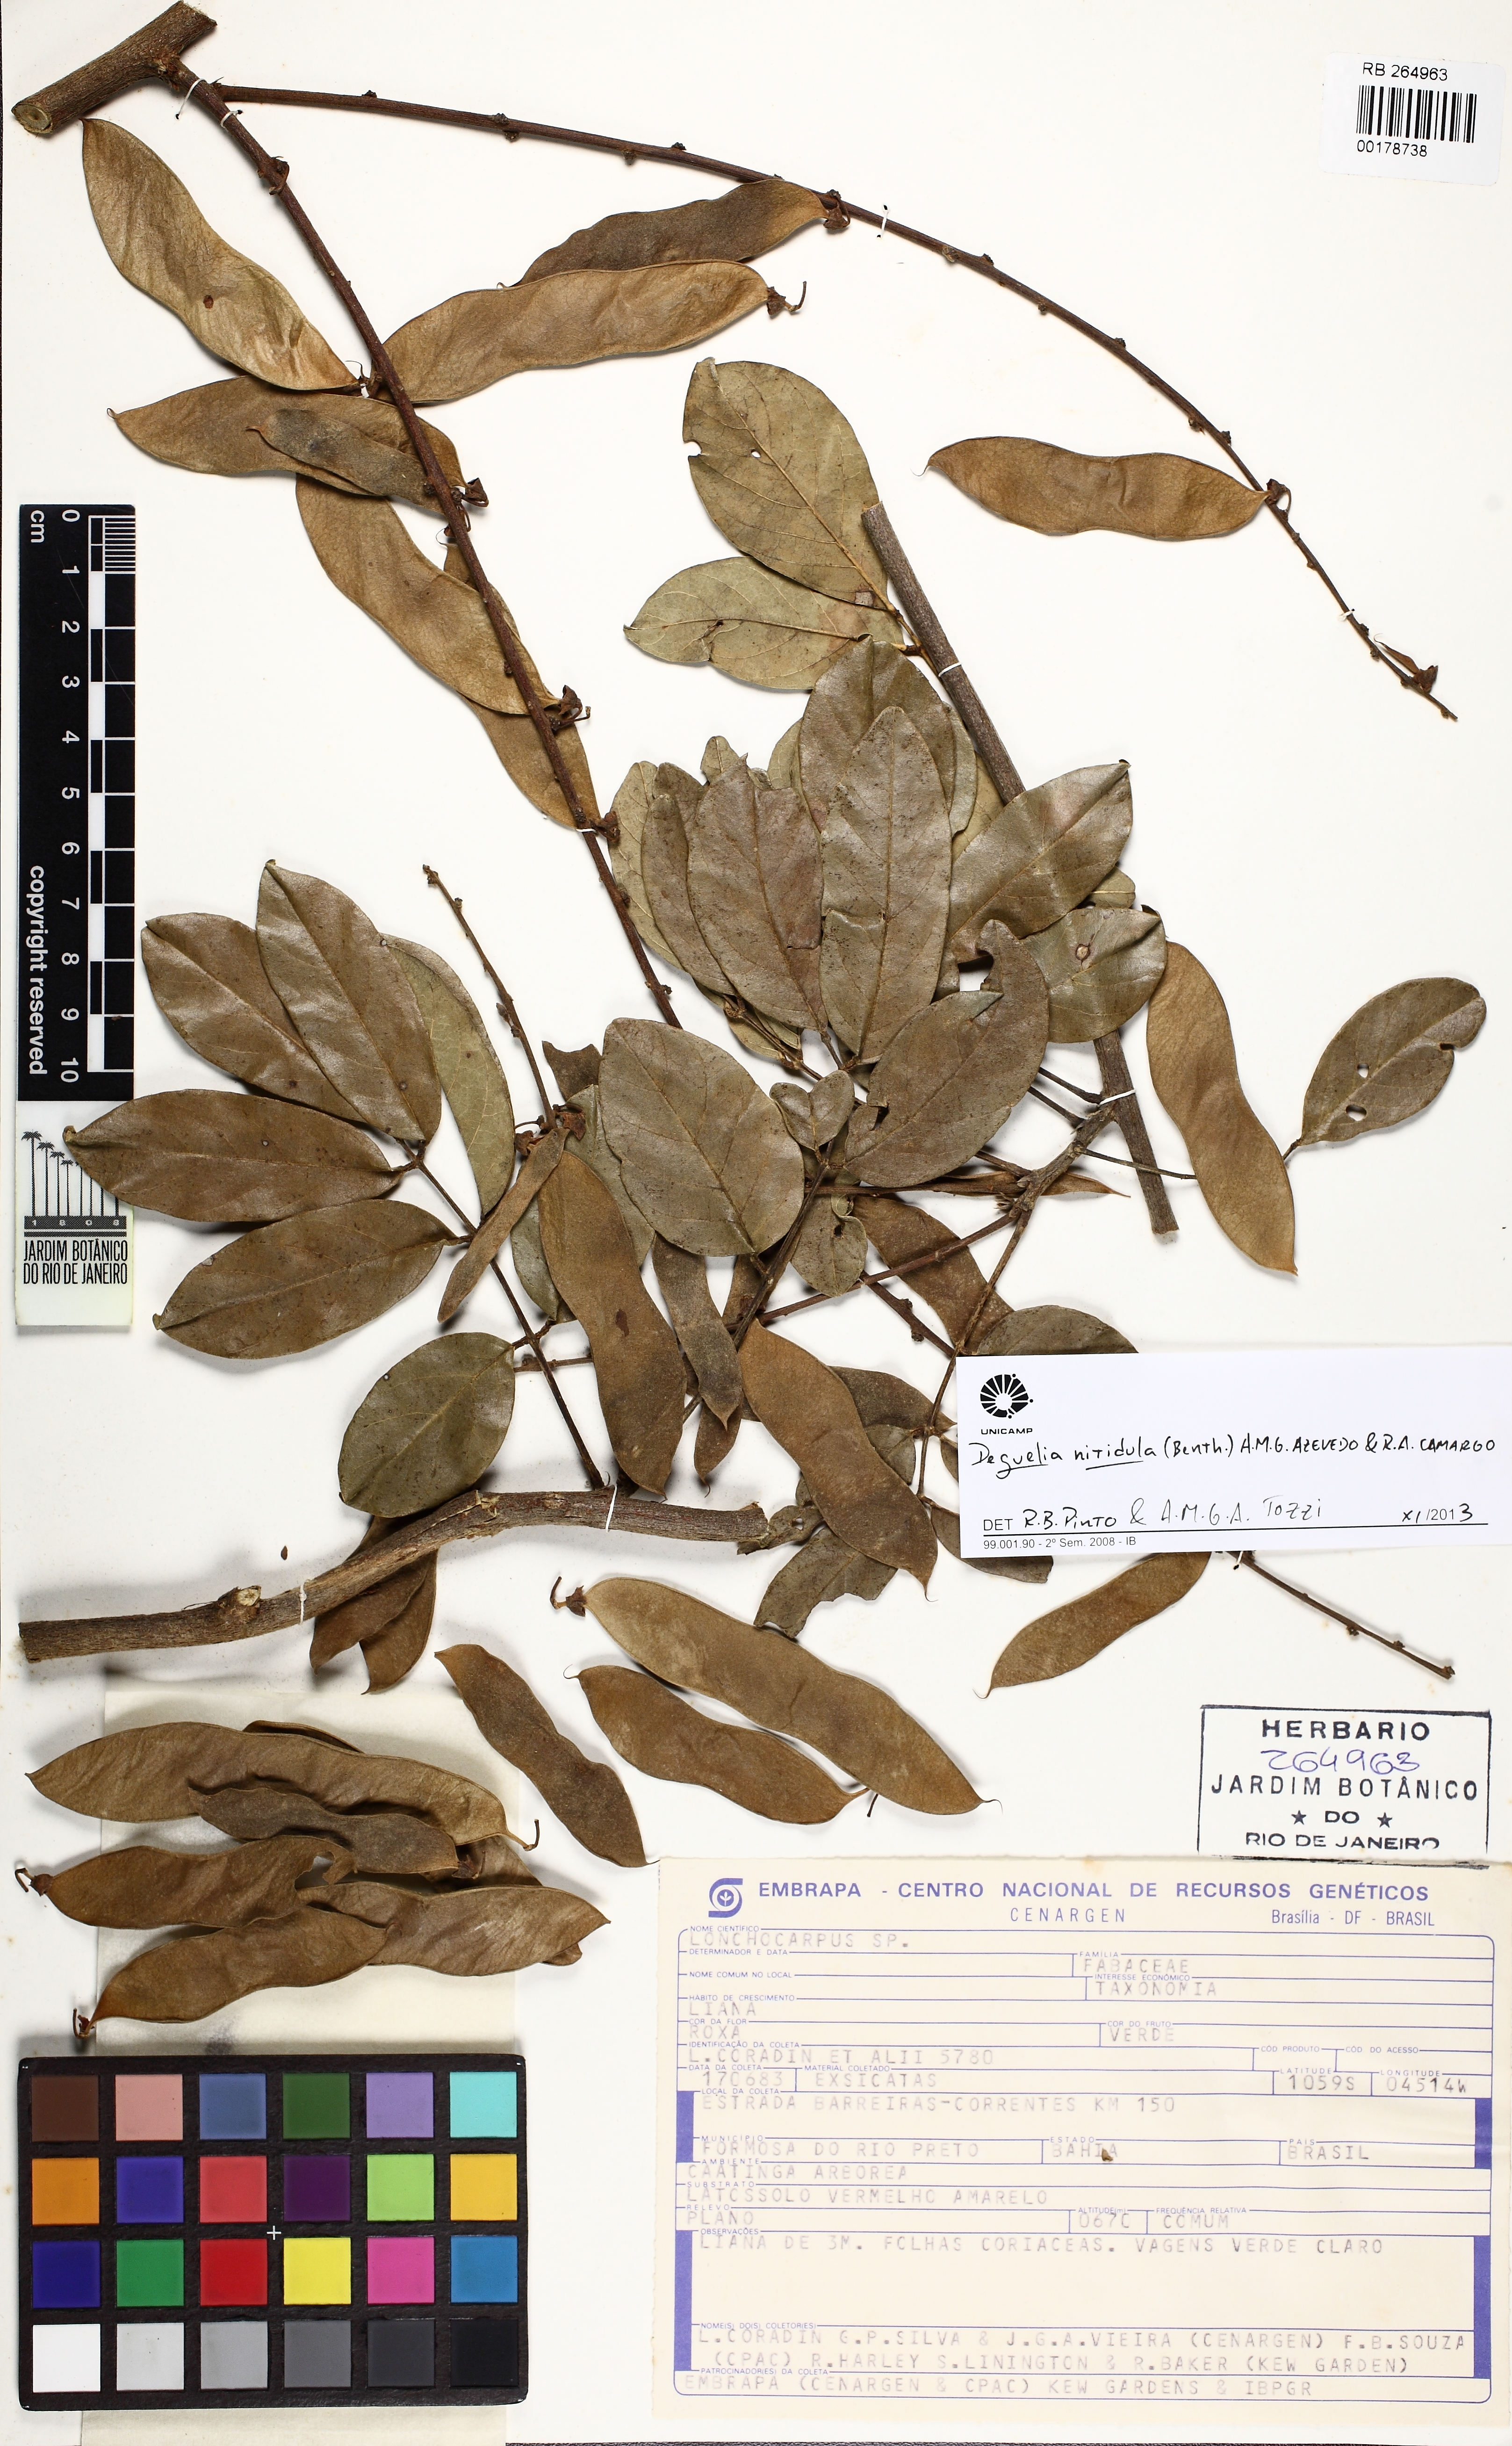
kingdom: Plantae
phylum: Tracheophyta
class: Magnoliopsida
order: Fabales
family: Fabaceae
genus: Deguelia
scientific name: Deguelia nitidula
